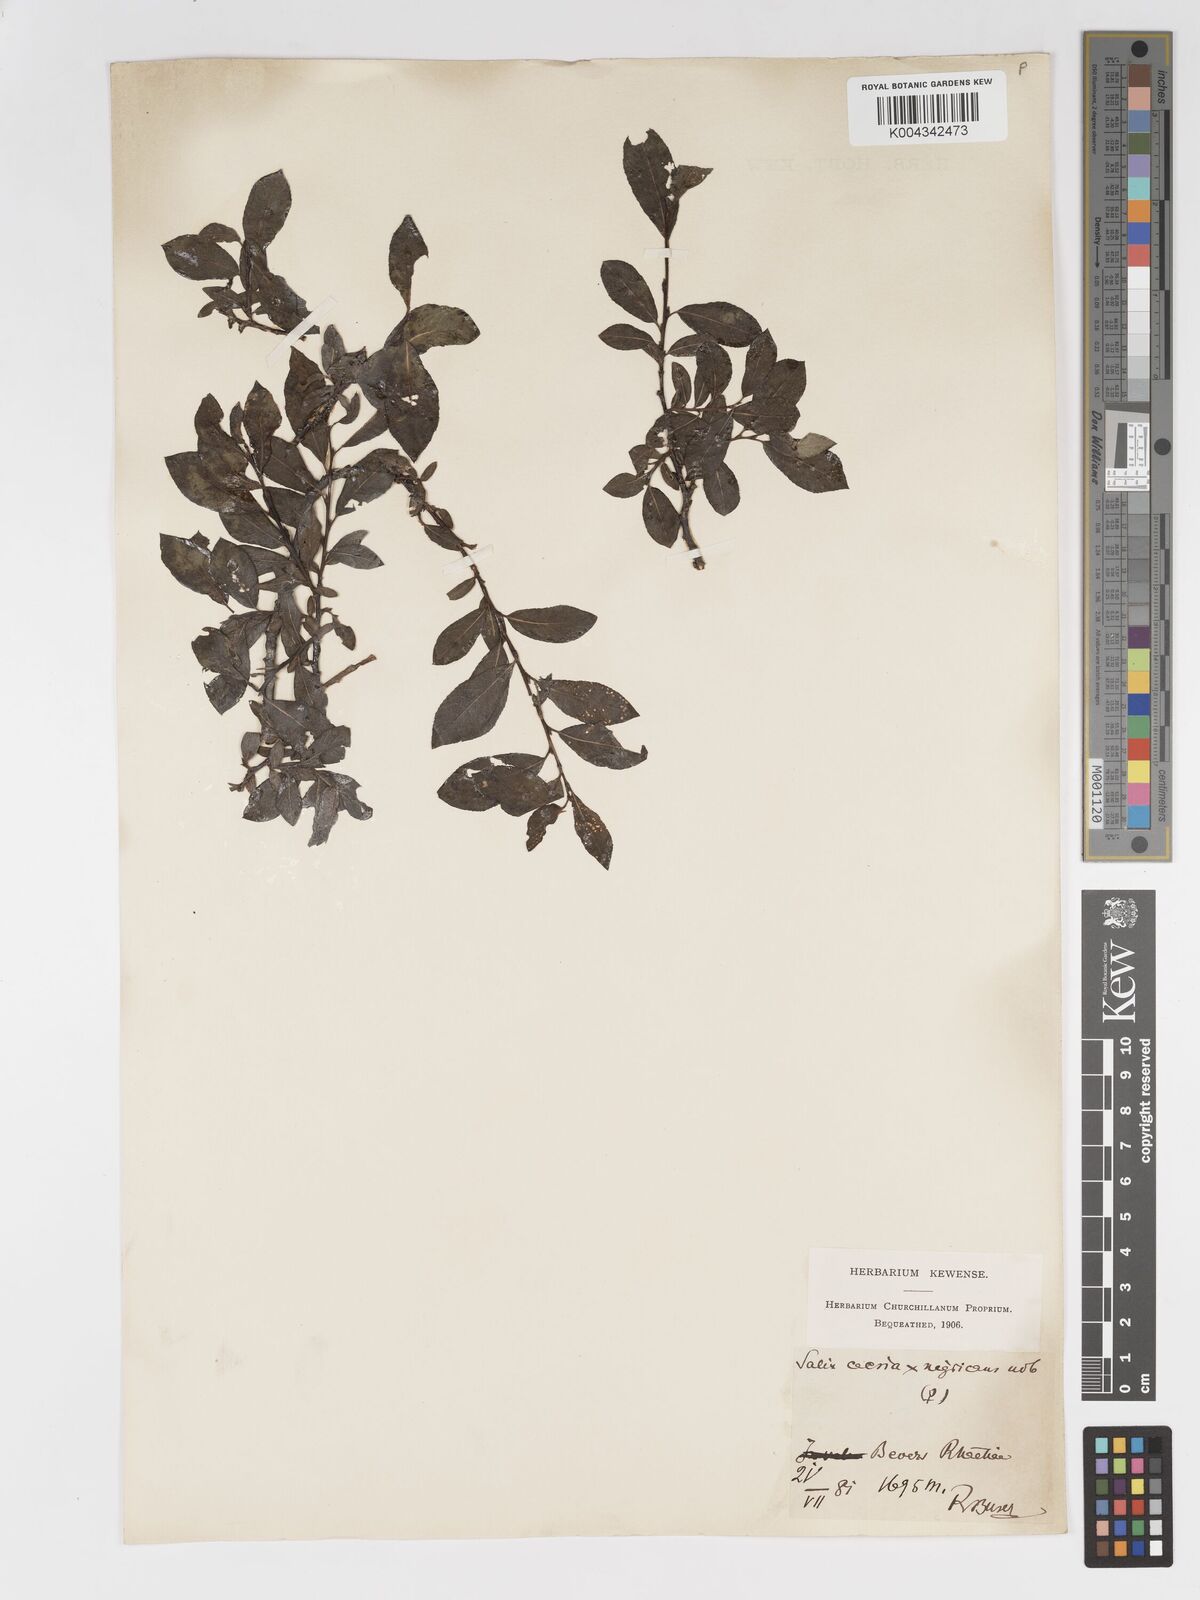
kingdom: Plantae
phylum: Tracheophyta
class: Magnoliopsida
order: Malpighiales
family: Salicaceae
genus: Salix
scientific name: Salix
